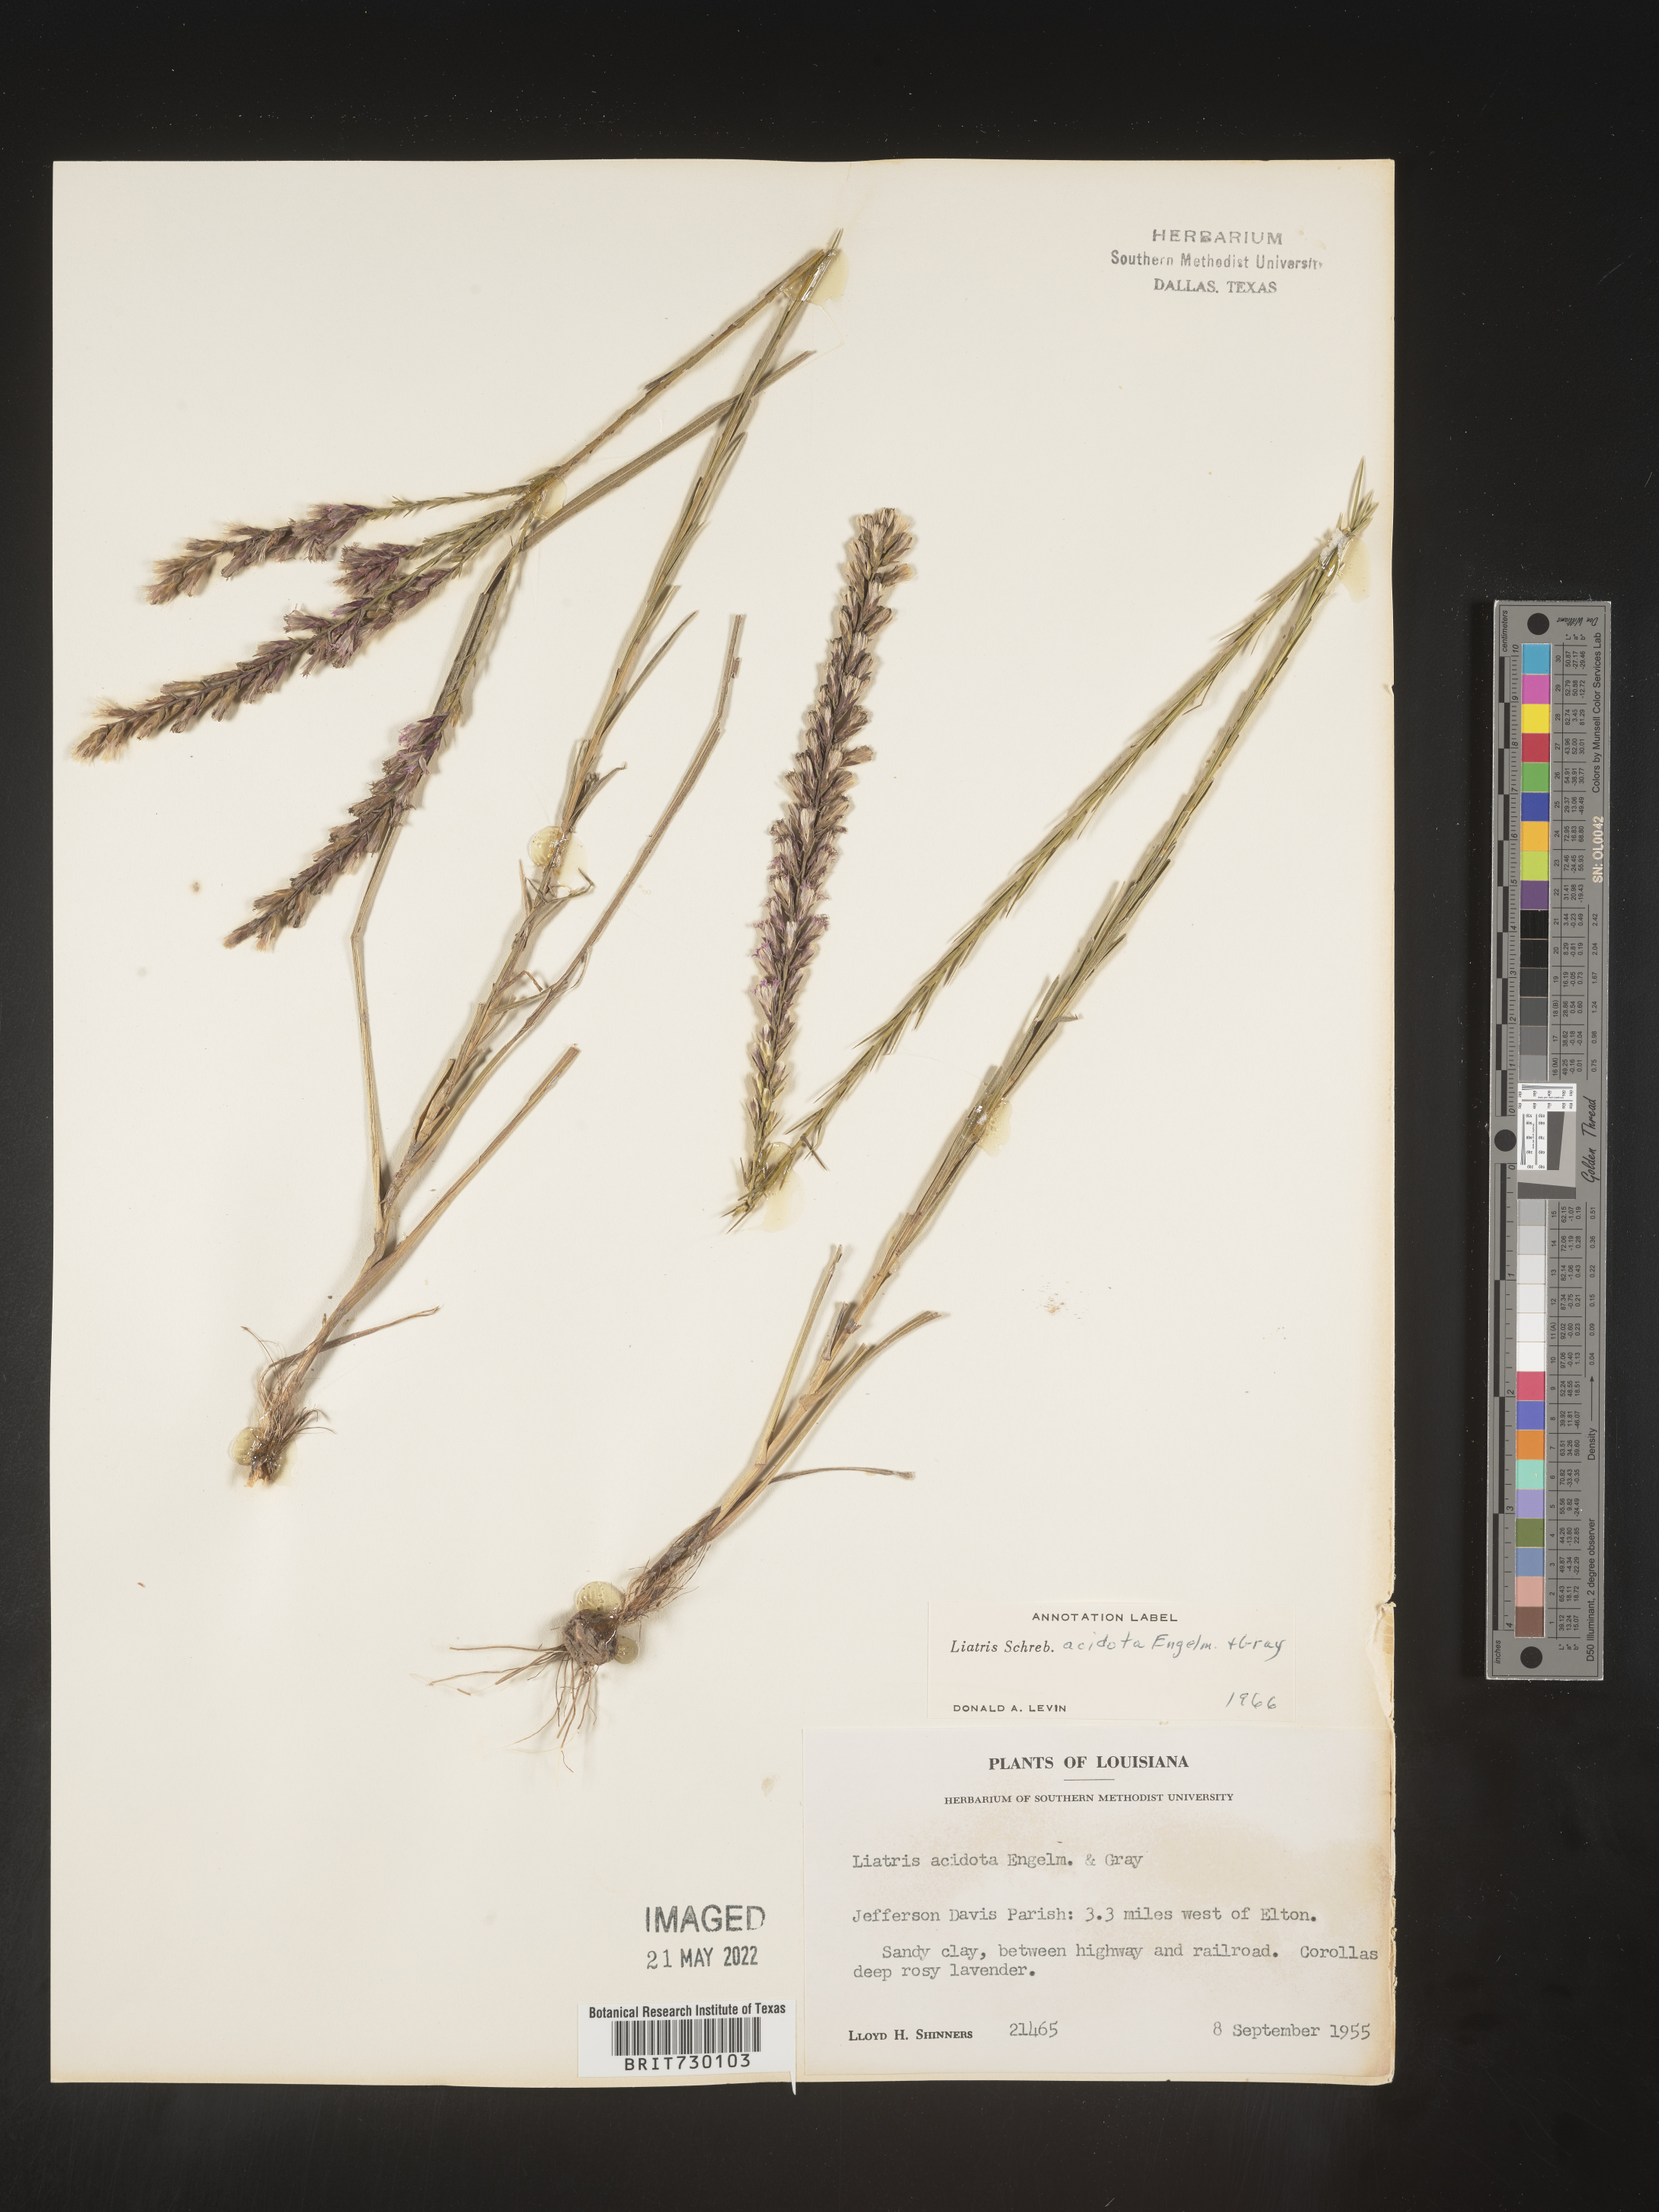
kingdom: Plantae
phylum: Tracheophyta
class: Magnoliopsida
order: Asterales
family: Asteraceae
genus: Liatris
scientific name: Liatris acidota
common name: Gulf coast gayfeather
